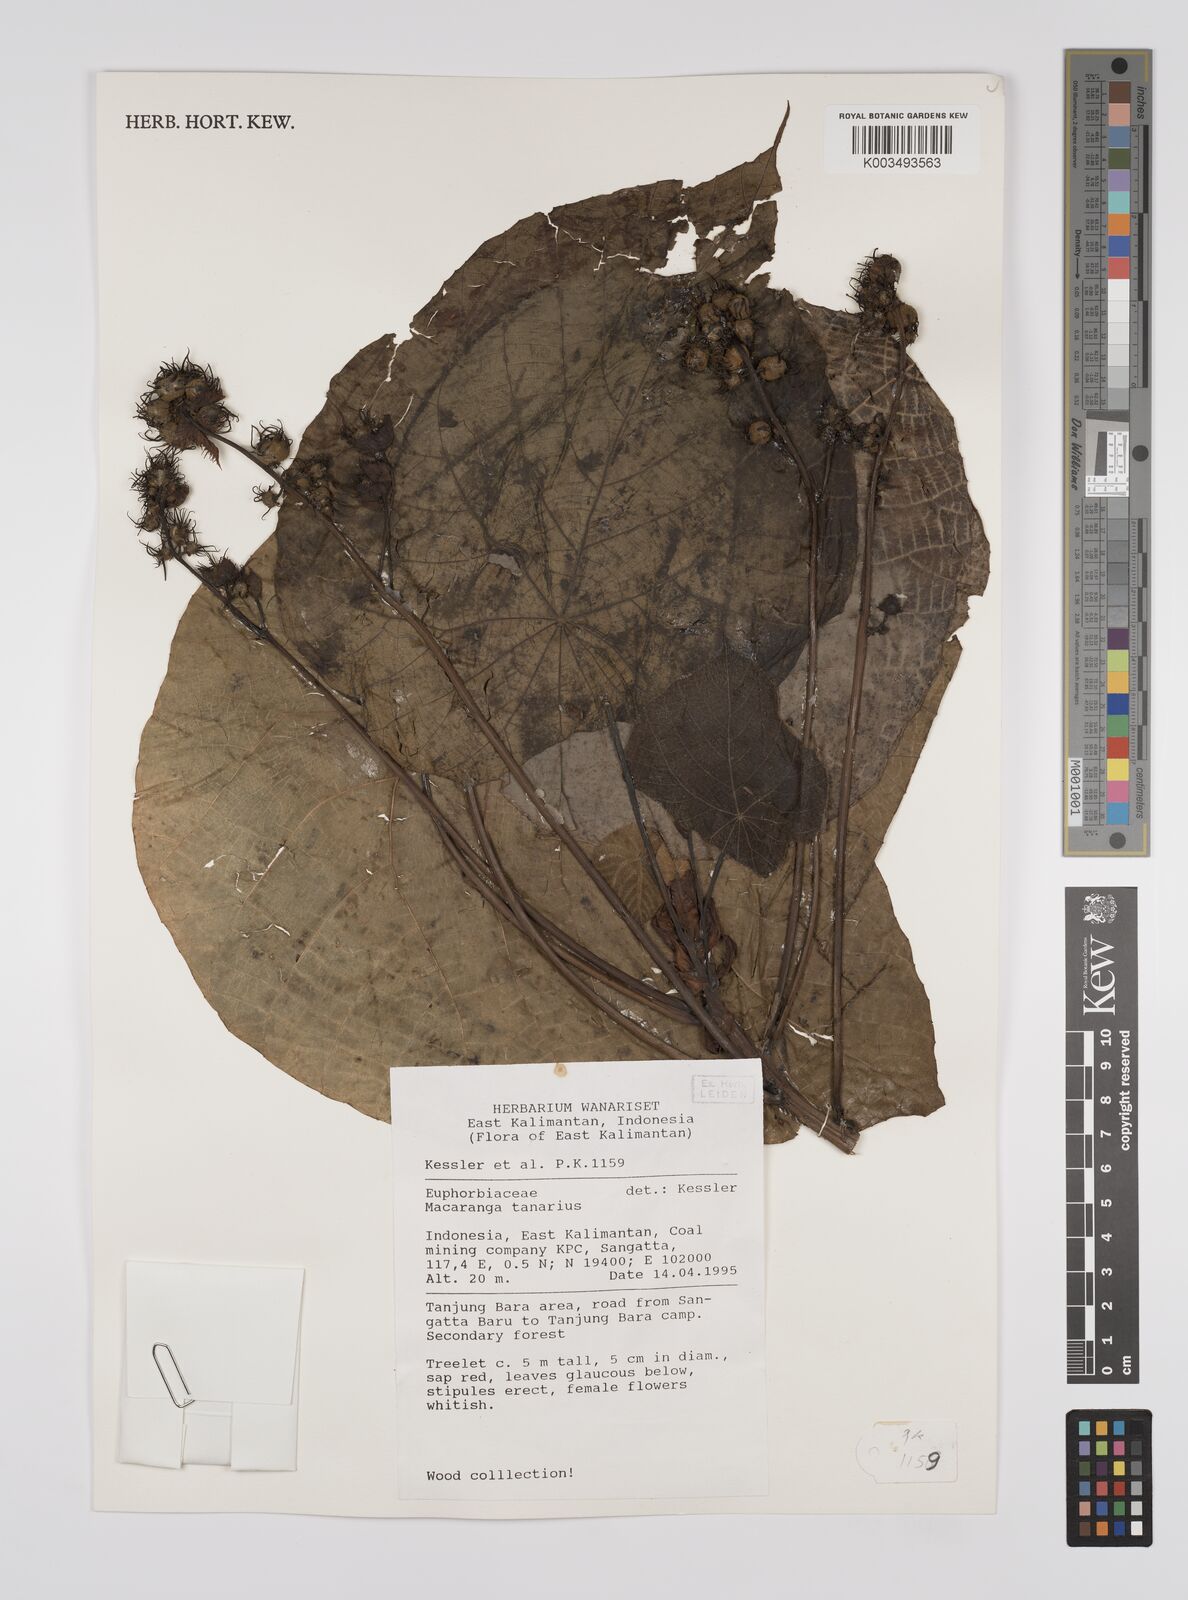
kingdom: Plantae
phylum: Tracheophyta
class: Magnoliopsida
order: Malpighiales
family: Euphorbiaceae
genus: Macaranga
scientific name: Macaranga tanarius
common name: Parasol leaf tree
